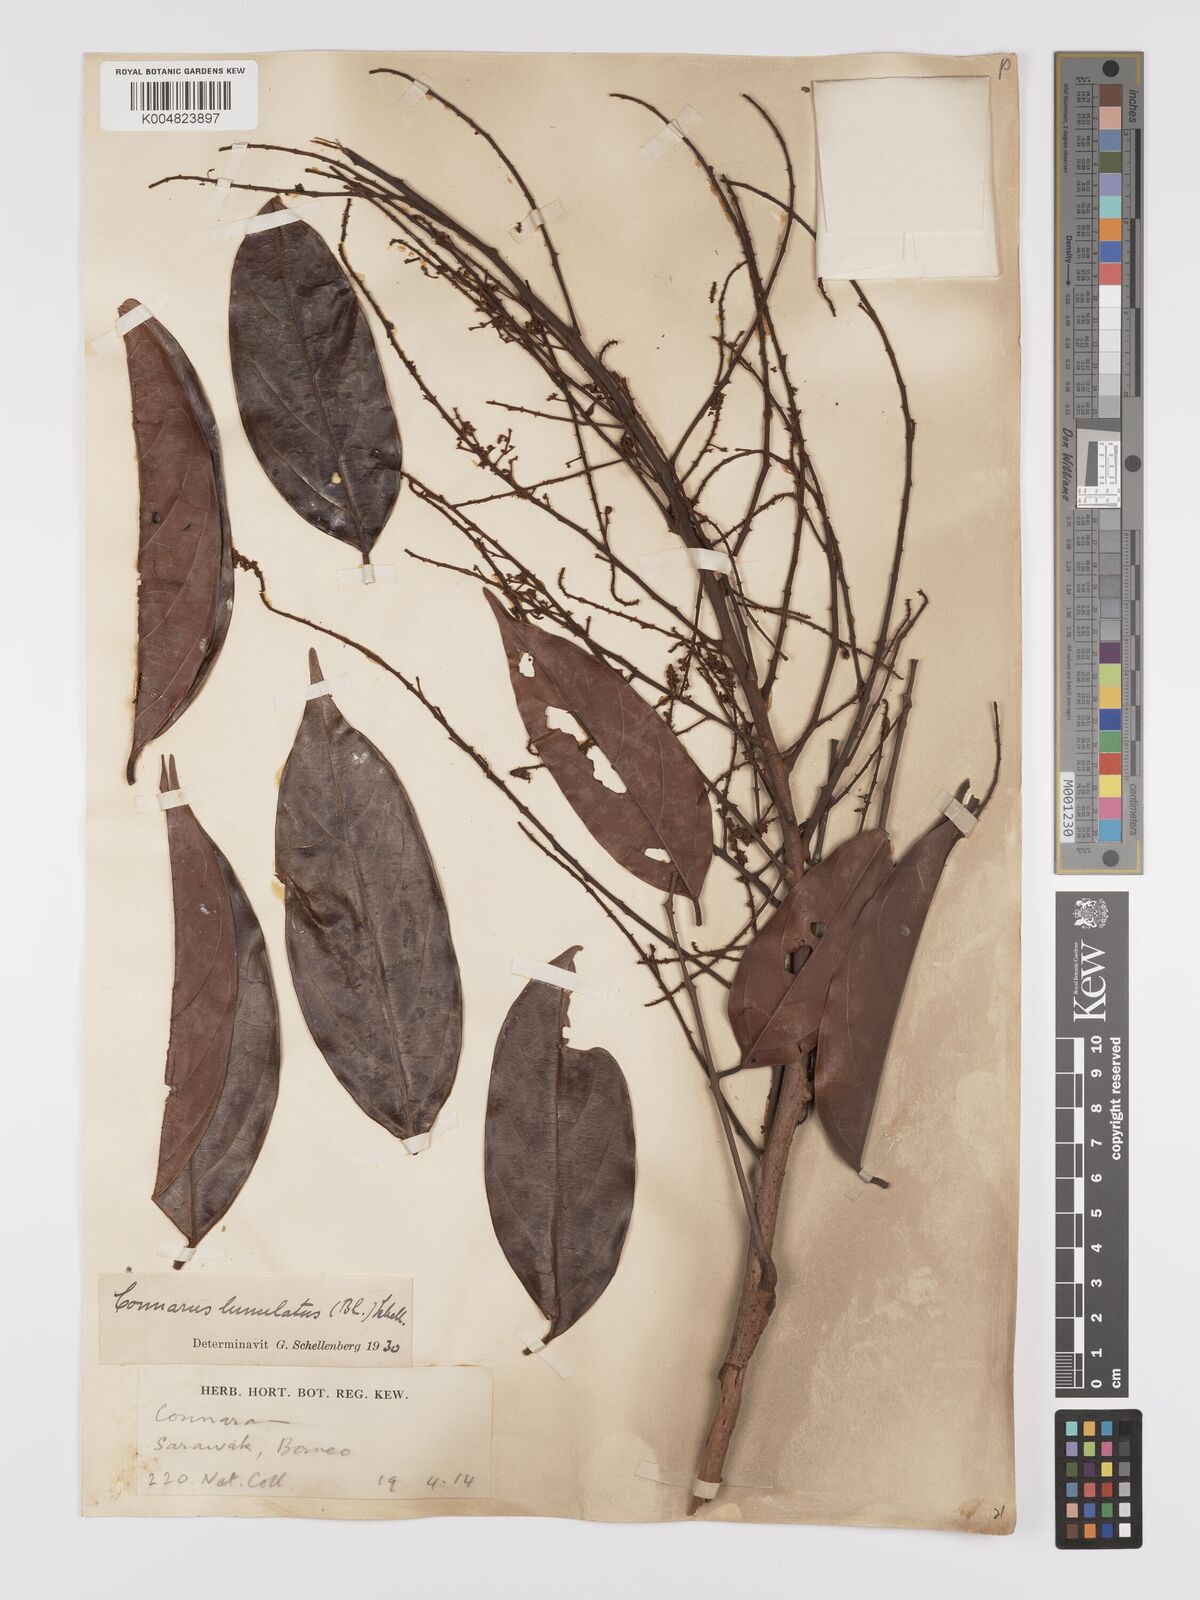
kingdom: Plantae
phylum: Tracheophyta
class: Magnoliopsida
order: Oxalidales
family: Connaraceae
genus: Connarus
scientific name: Connarus grandis
